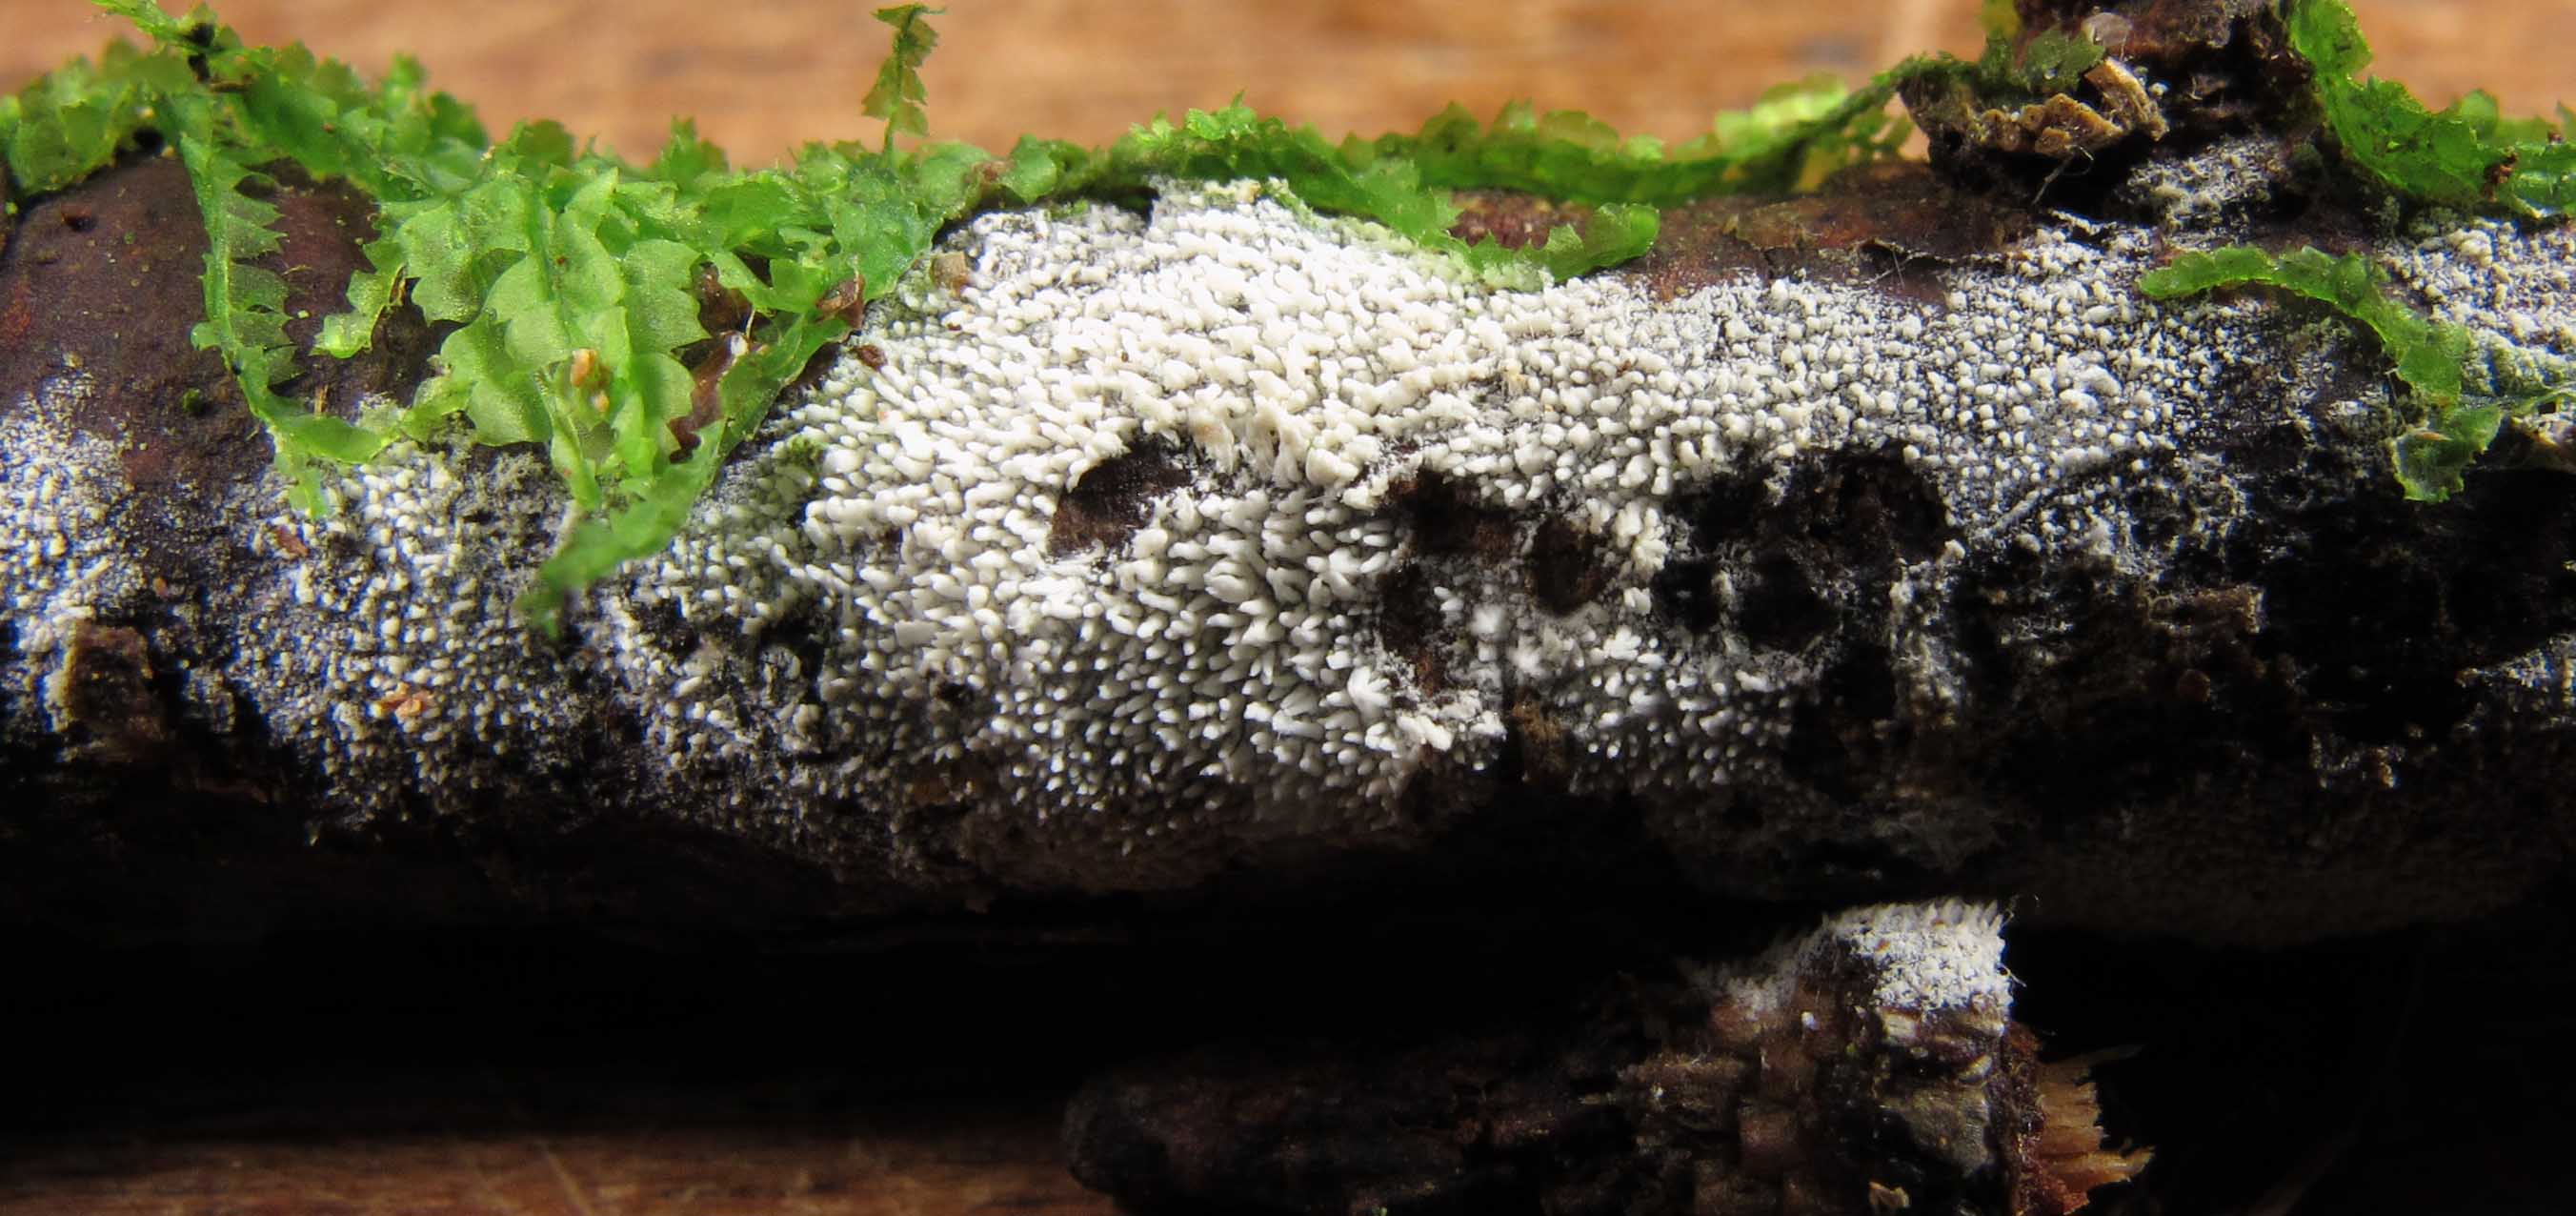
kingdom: Fungi
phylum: Basidiomycota
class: Agaricomycetes
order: Trechisporales
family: Sistotremataceae
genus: Trechispora
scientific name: Trechispora farinacea
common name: pigget vathinde
